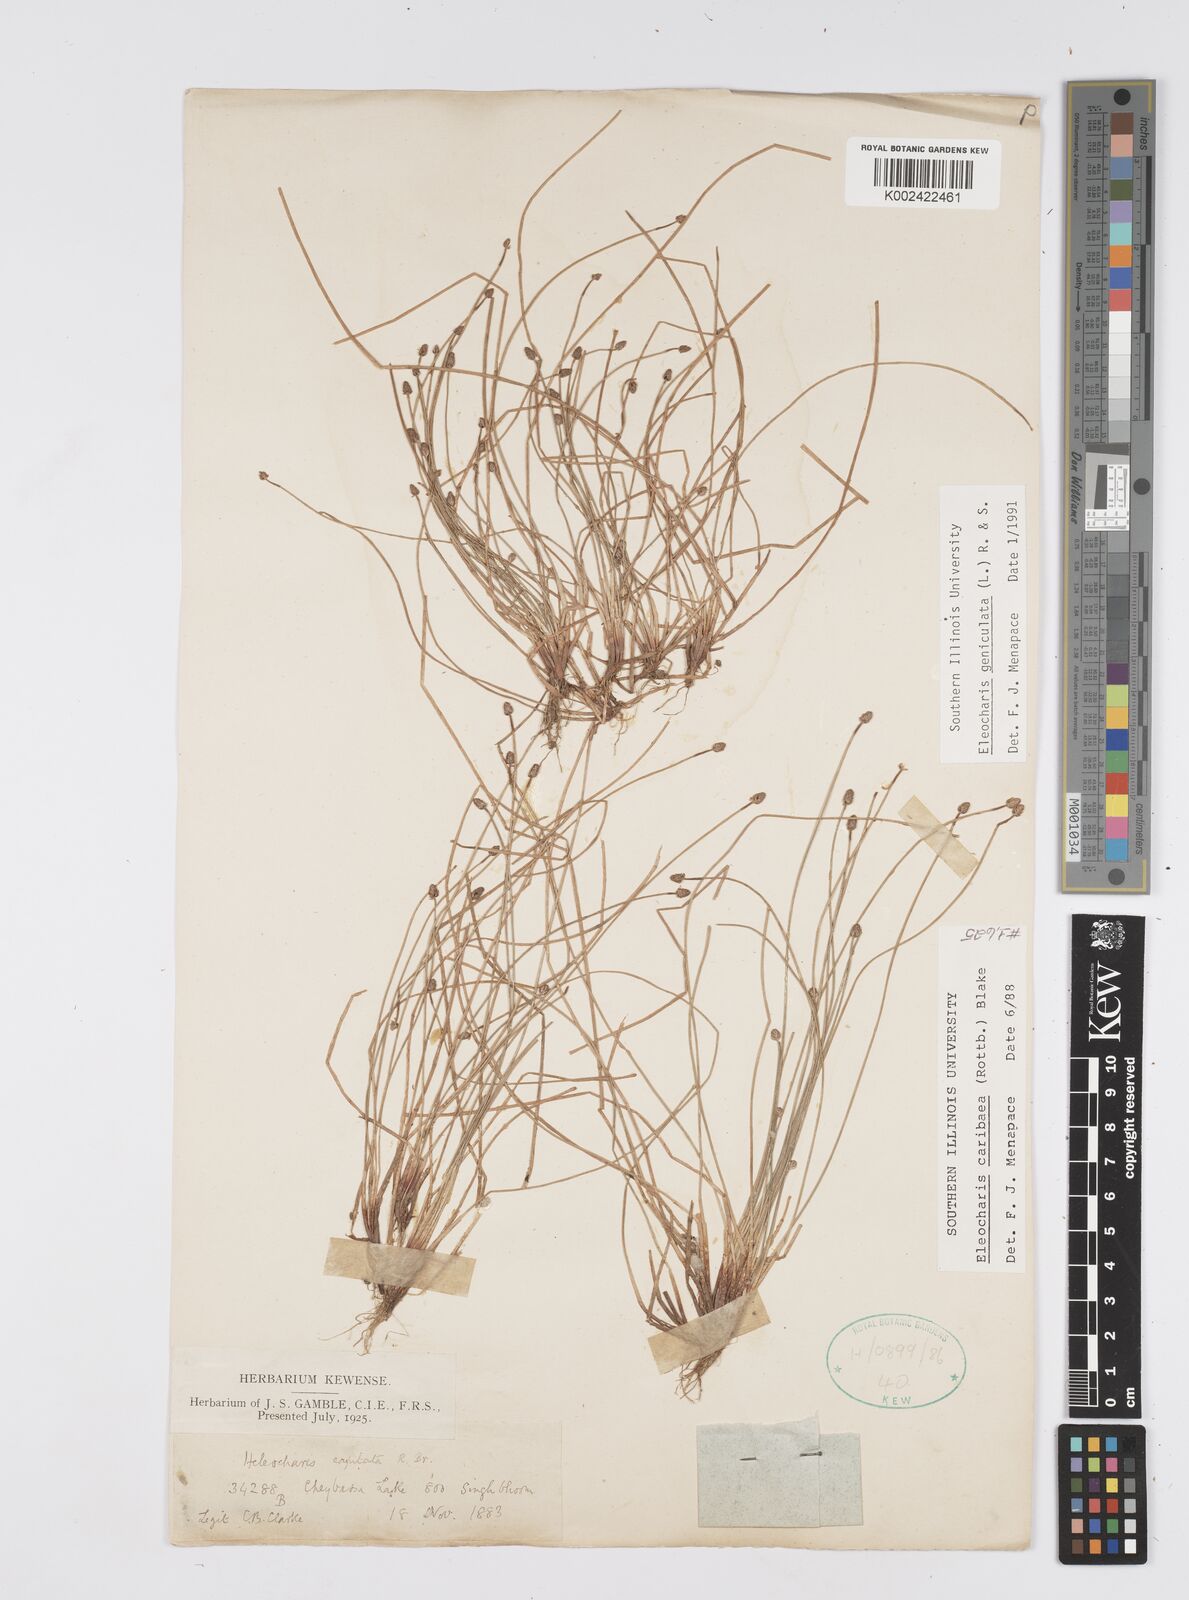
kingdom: Plantae
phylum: Tracheophyta
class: Liliopsida
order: Poales
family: Cyperaceae
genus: Eleocharis
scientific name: Eleocharis geniculata
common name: Canada spikesedge
